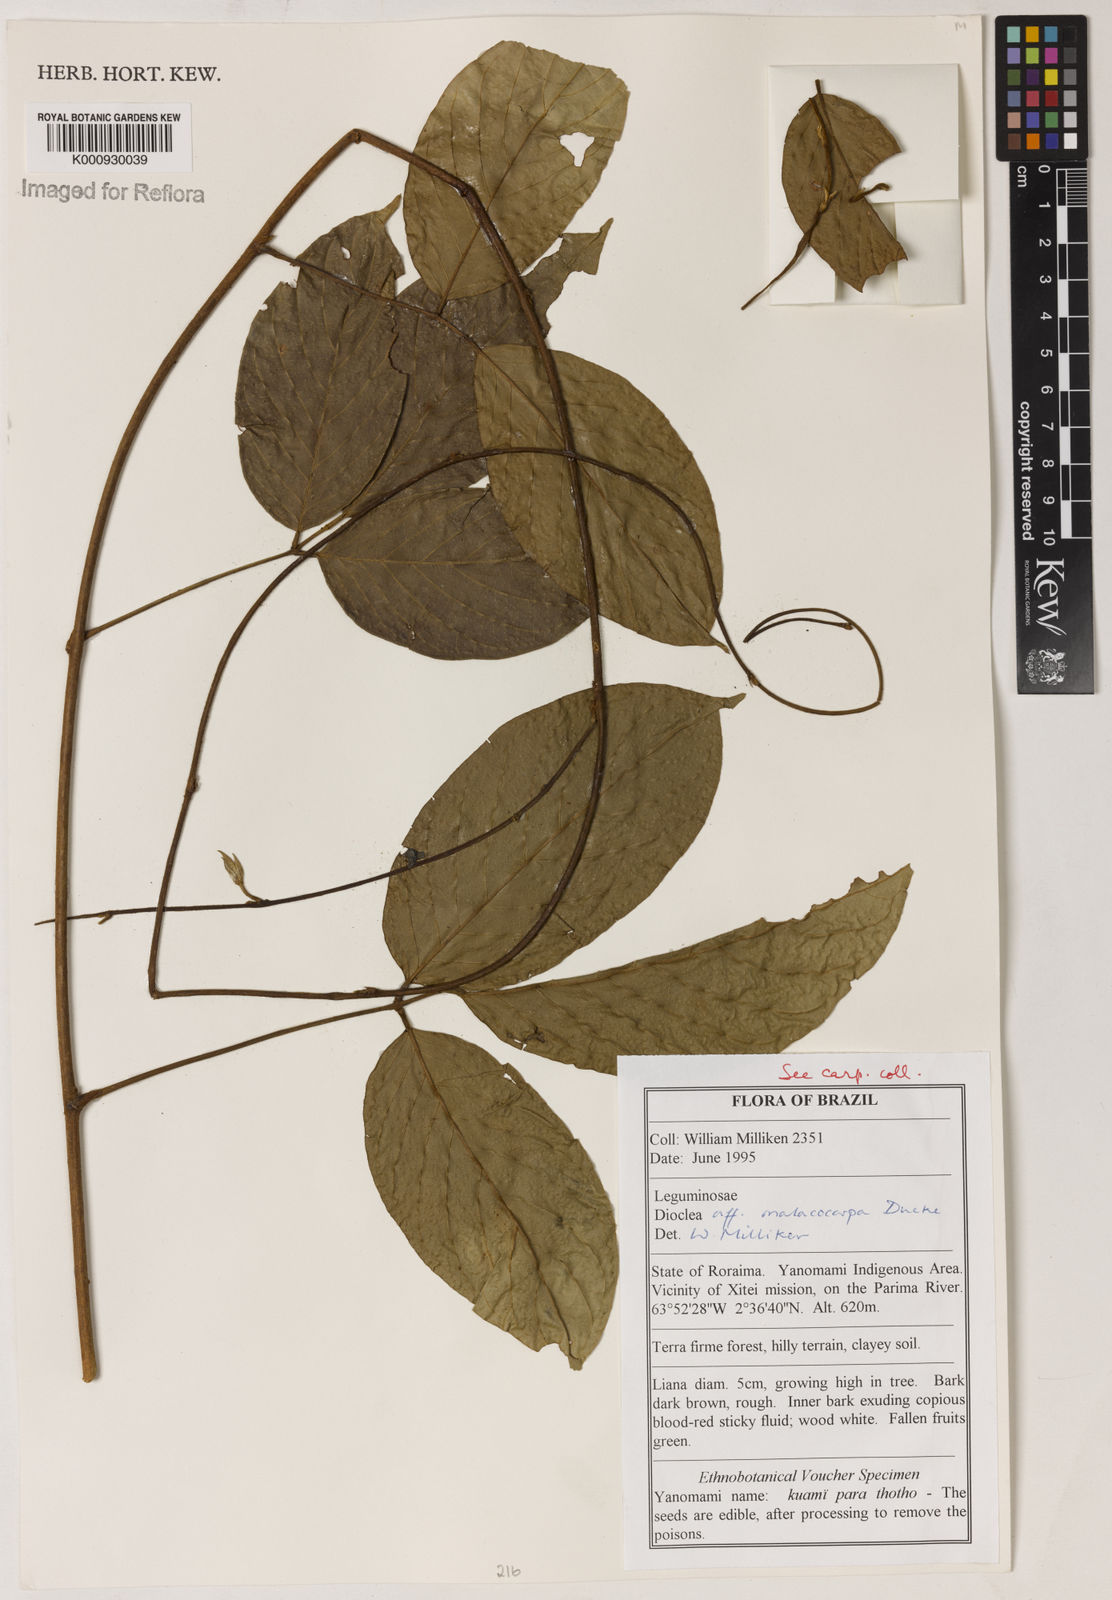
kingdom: Plantae
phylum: Tracheophyta
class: Magnoliopsida
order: Fabales
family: Fabaceae
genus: Macropsychanthus
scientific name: Macropsychanthus malacocarpus
